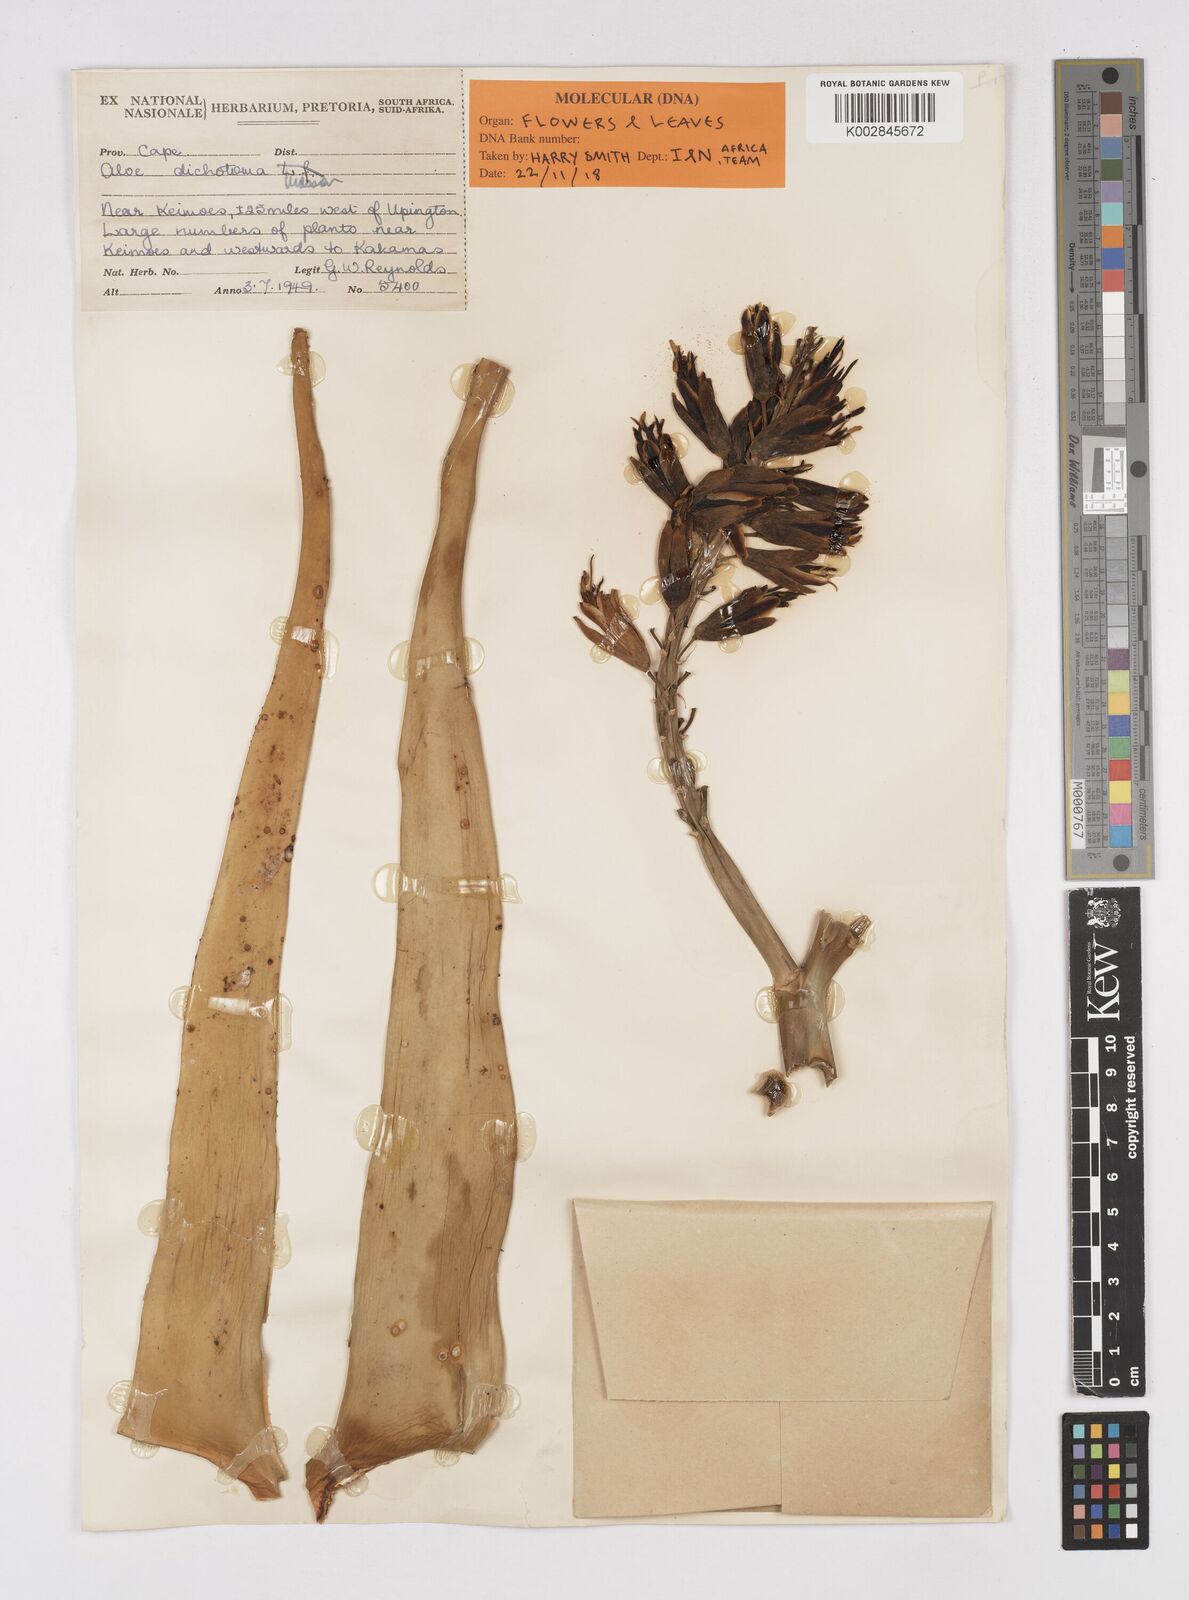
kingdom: Plantae
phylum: Tracheophyta
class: Liliopsida
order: Asparagales
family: Asphodelaceae
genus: Aloidendron
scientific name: Aloidendron dichotomum
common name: Quiver tree
